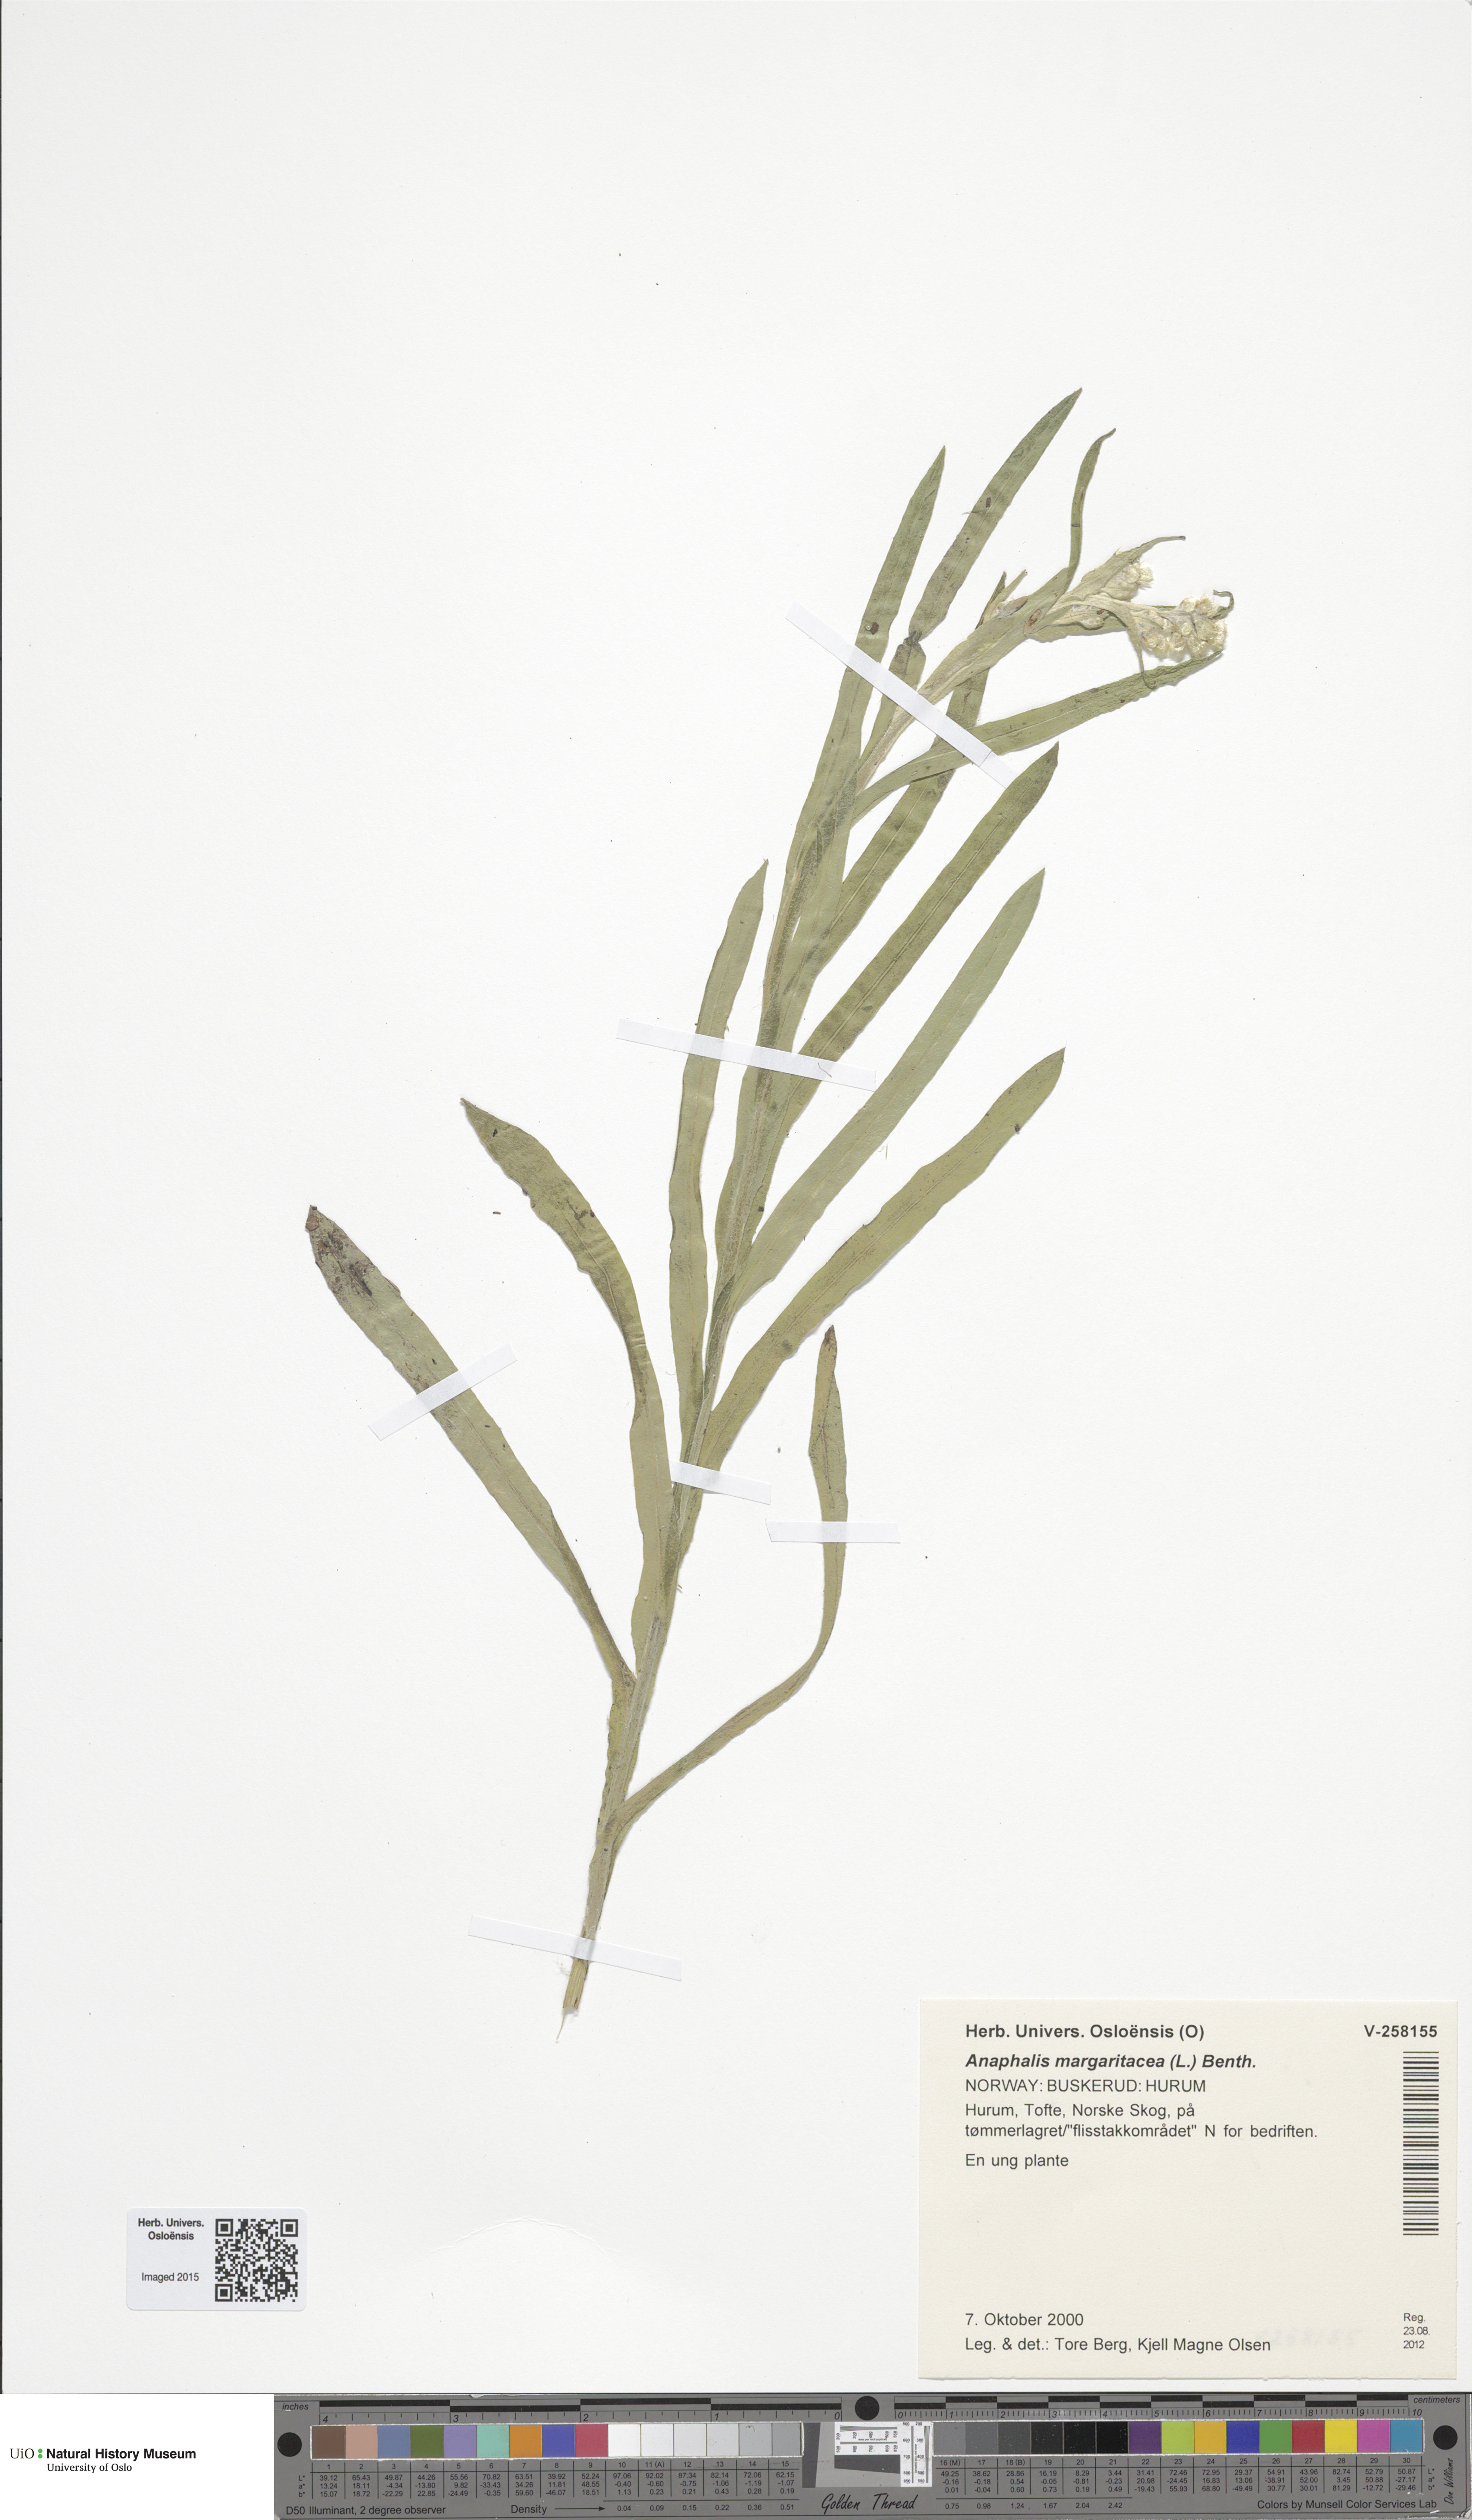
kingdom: Plantae
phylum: Tracheophyta
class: Magnoliopsida
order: Asterales
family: Asteraceae
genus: Anaphalis
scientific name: Anaphalis margaritacea
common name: Pearly everlasting
